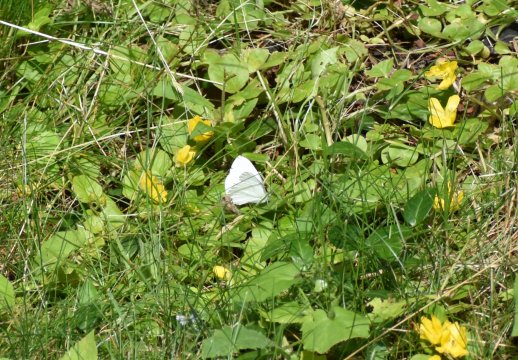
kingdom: Animalia
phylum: Arthropoda
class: Insecta
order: Lepidoptera
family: Pieridae
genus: Pieris
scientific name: Pieris oleracea
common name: Mustard White
